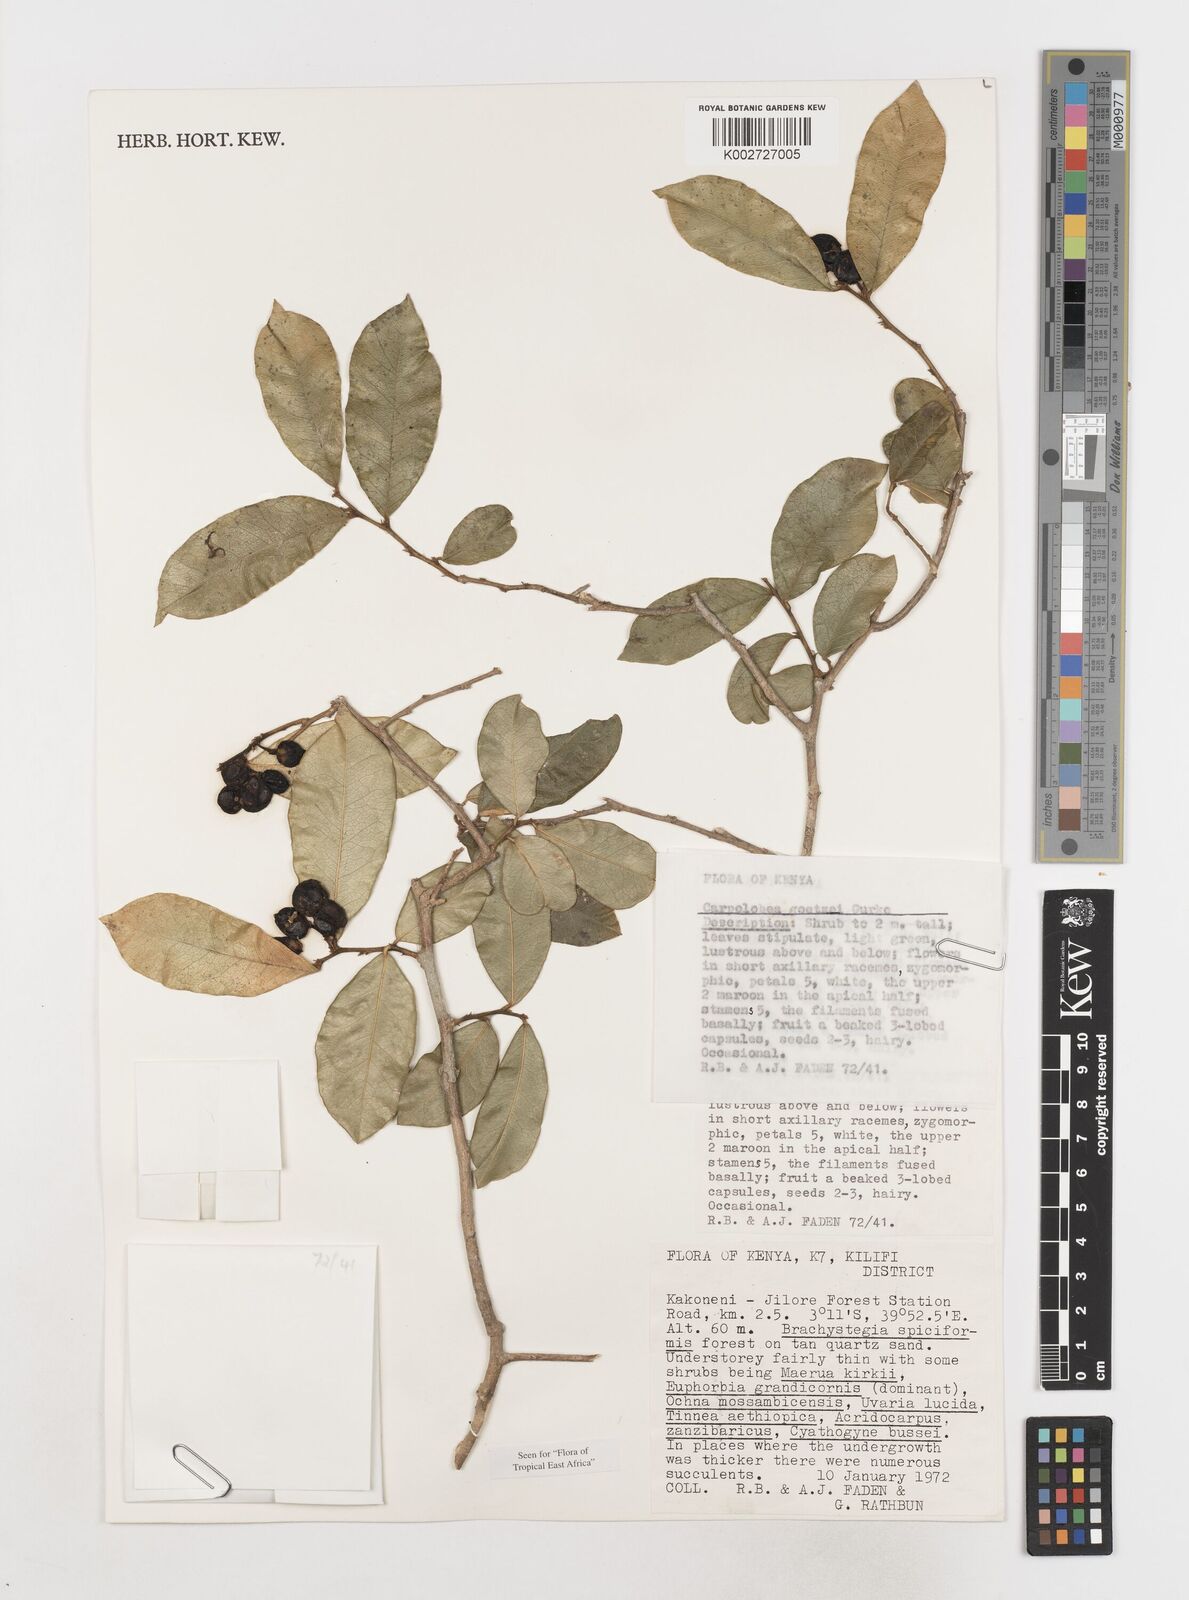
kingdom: Plantae
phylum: Tracheophyta
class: Magnoliopsida
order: Fabales
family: Polygalaceae
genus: Carpolobia
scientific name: Carpolobia goetzei
